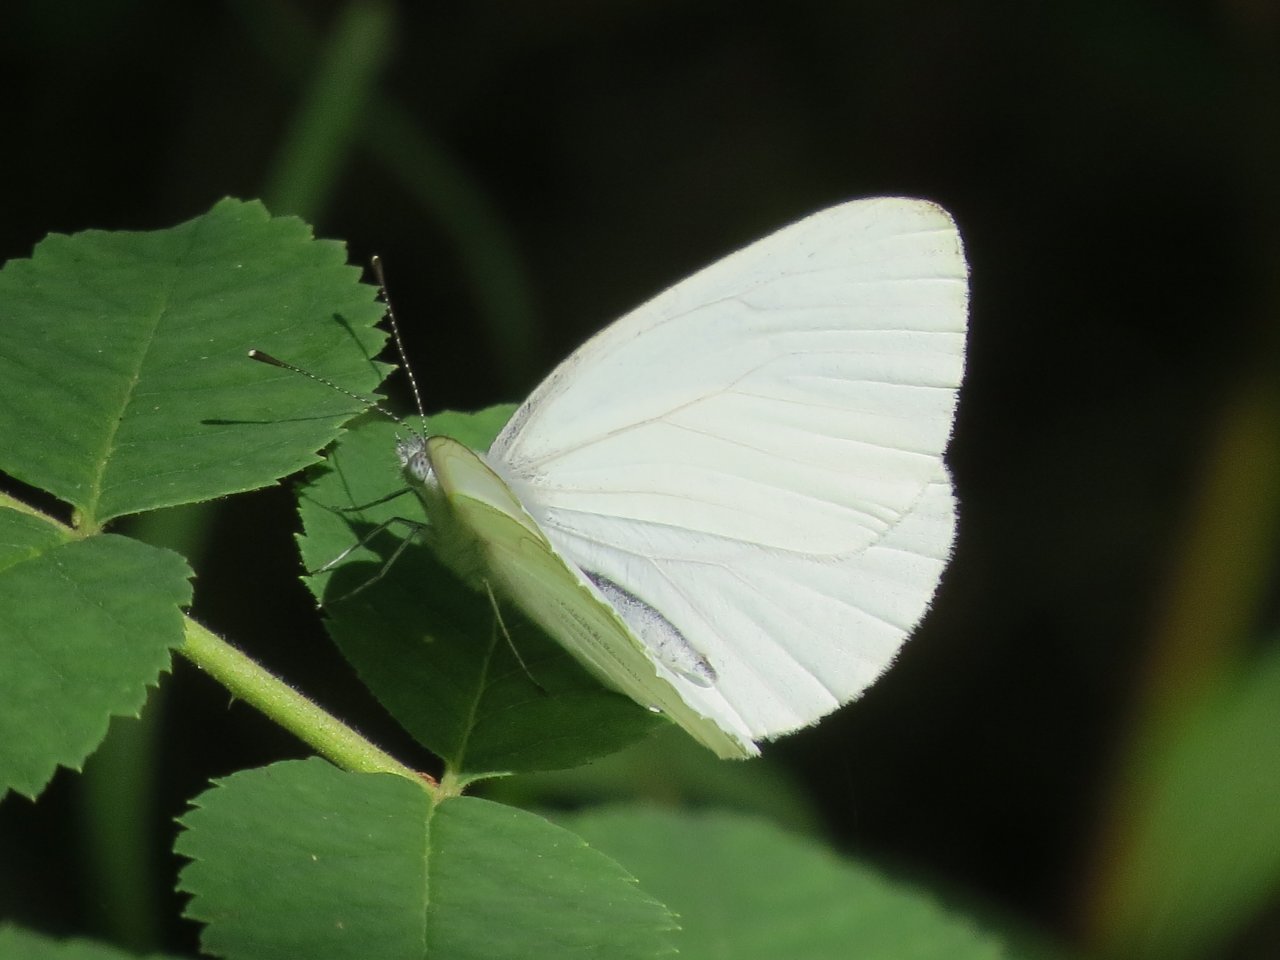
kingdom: Animalia
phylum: Arthropoda
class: Insecta
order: Lepidoptera
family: Pieridae
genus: Pieris
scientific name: Pieris oleracea
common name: Mustard White
